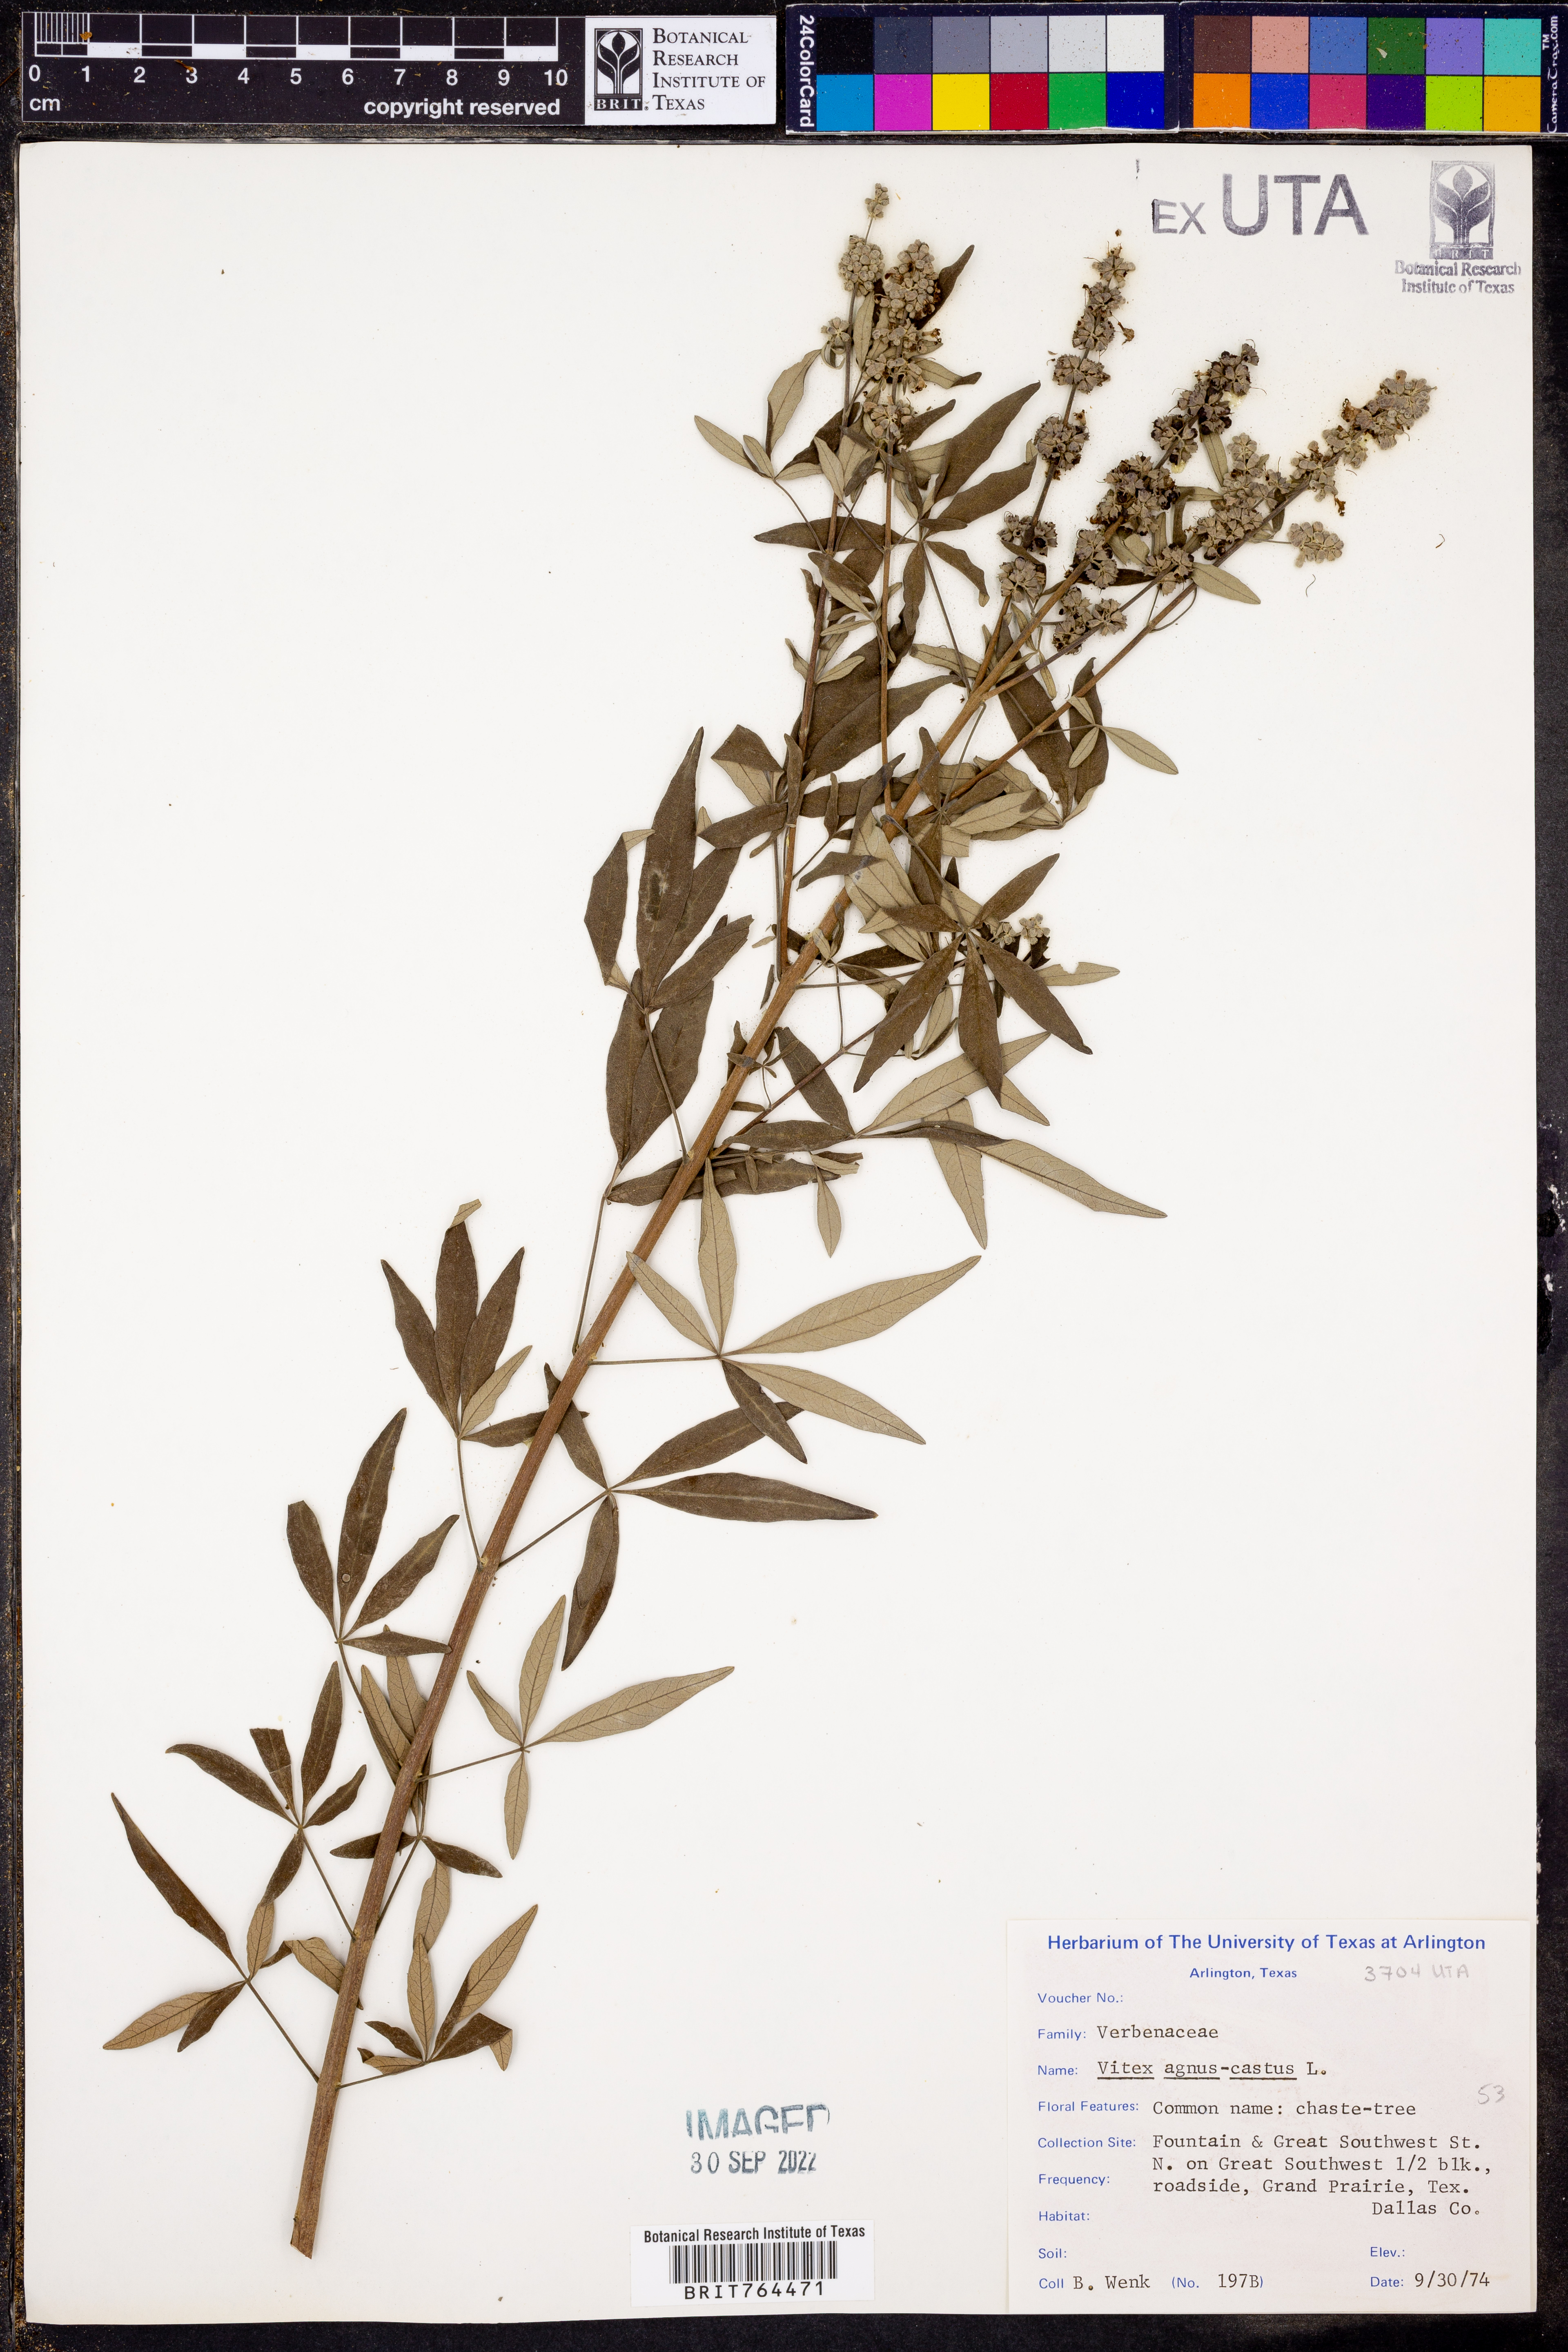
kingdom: Plantae
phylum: Tracheophyta
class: Magnoliopsida
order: Lamiales
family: Lamiaceae
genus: Vitex
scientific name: Vitex agnus-castus
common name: Chasteberry
